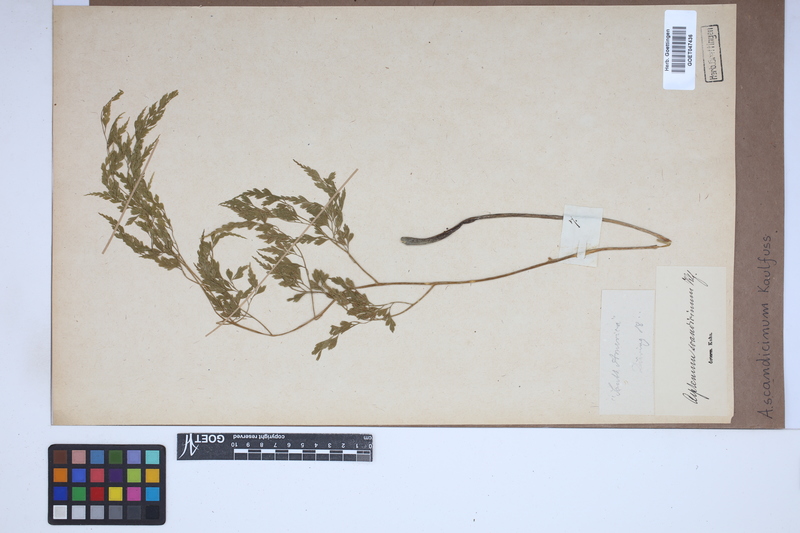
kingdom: Plantae
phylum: Tracheophyta
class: Polypodiopsida
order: Polypodiales
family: Aspleniaceae
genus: Asplenium
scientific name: Asplenium scandicinum
